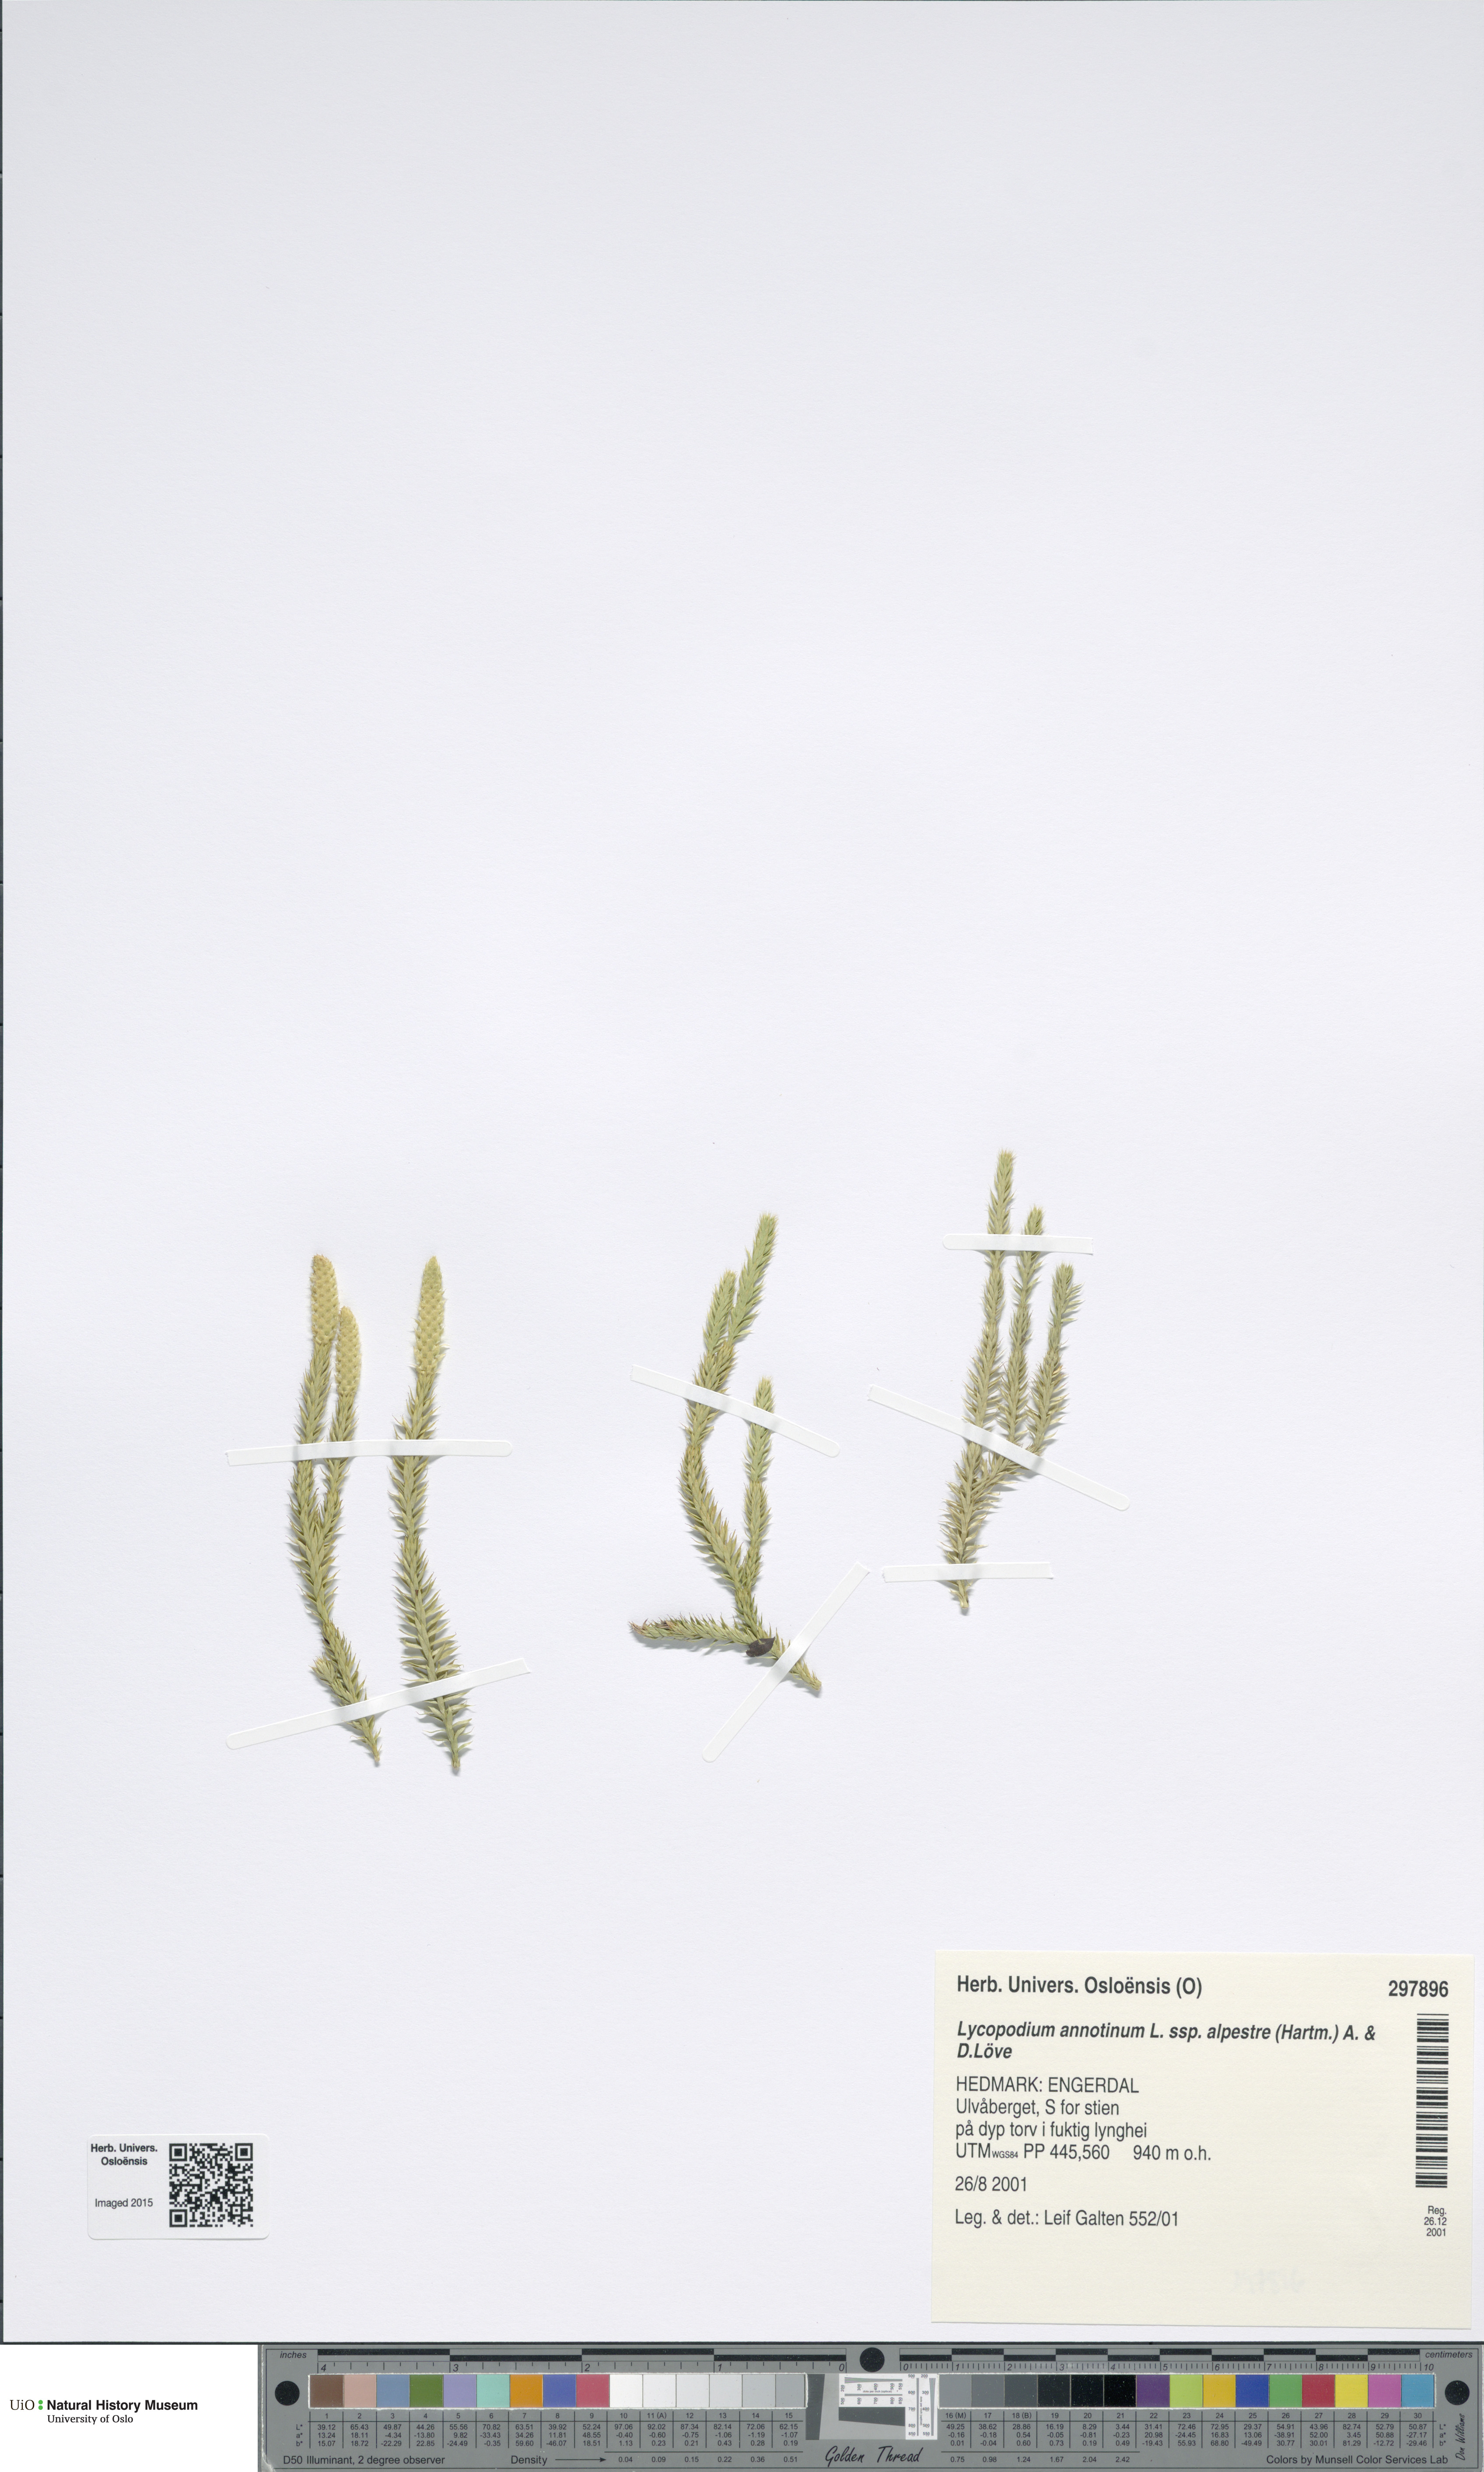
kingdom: Plantae
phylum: Tracheophyta
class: Lycopodiopsida
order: Lycopodiales
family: Lycopodiaceae
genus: Spinulum
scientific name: Spinulum annotinum
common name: Interrupted club-moss
